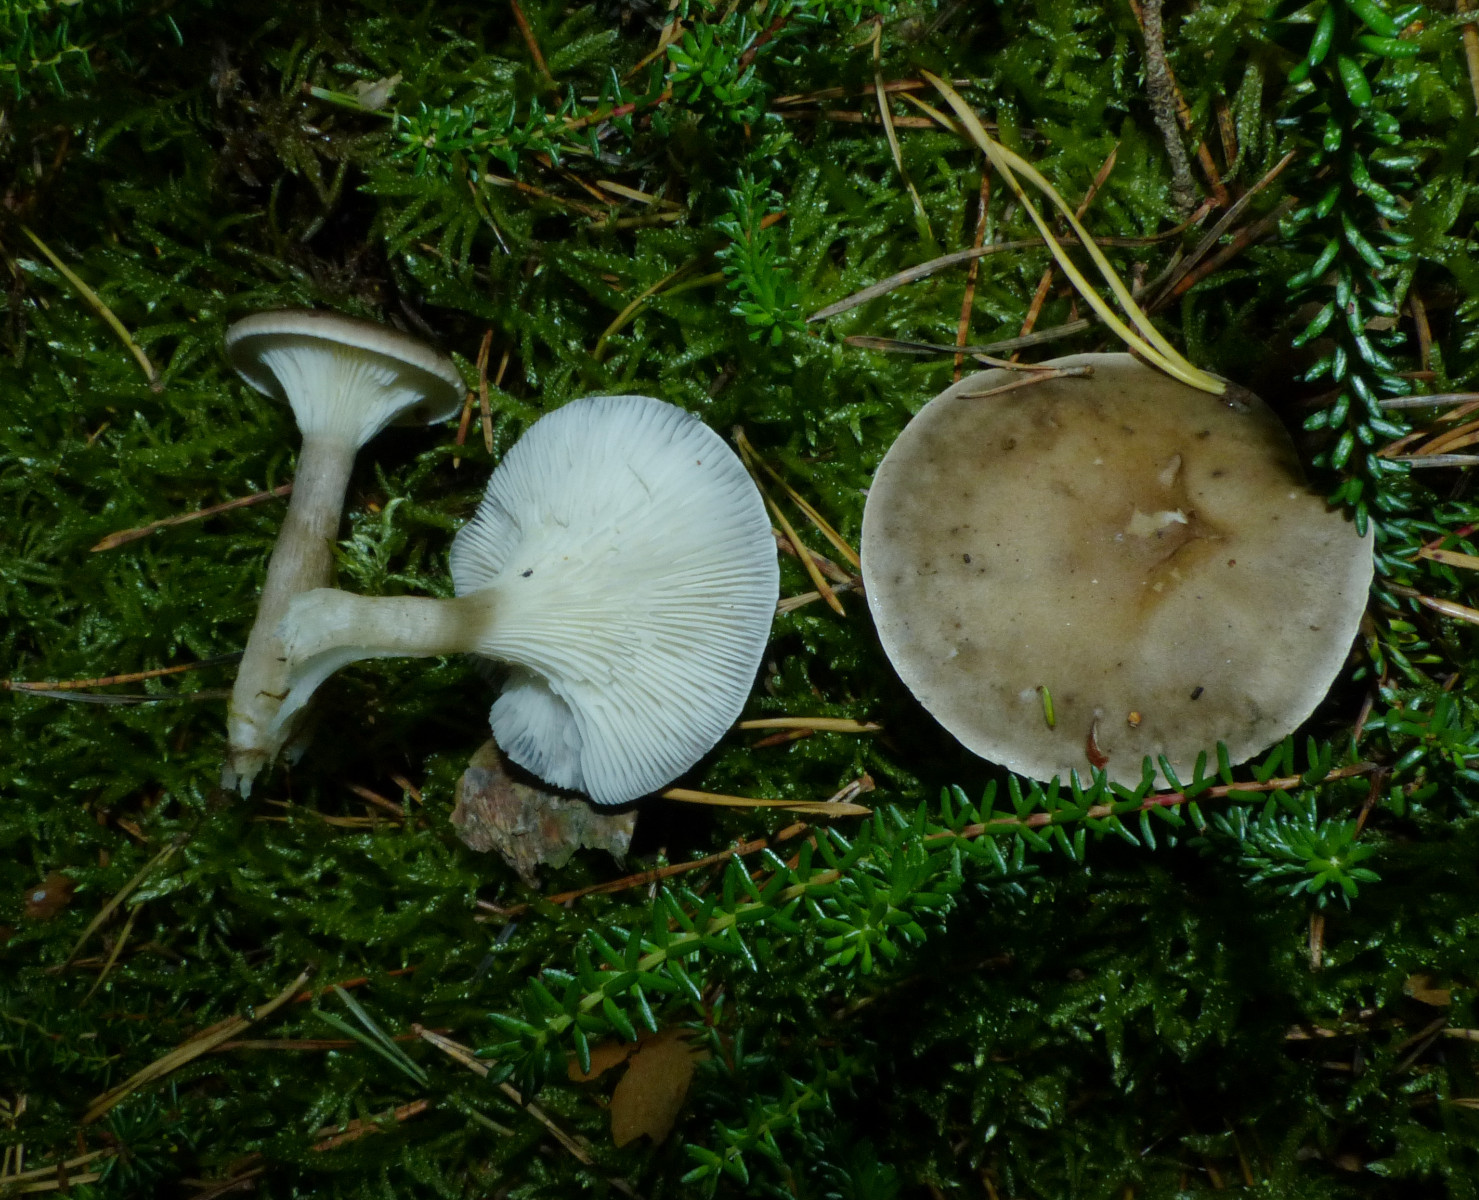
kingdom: Fungi
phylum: Basidiomycota
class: Agaricomycetes
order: Agaricales
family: Hygrophoraceae
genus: Ampulloclitocybe
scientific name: Ampulloclitocybe clavipes
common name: køllefod
